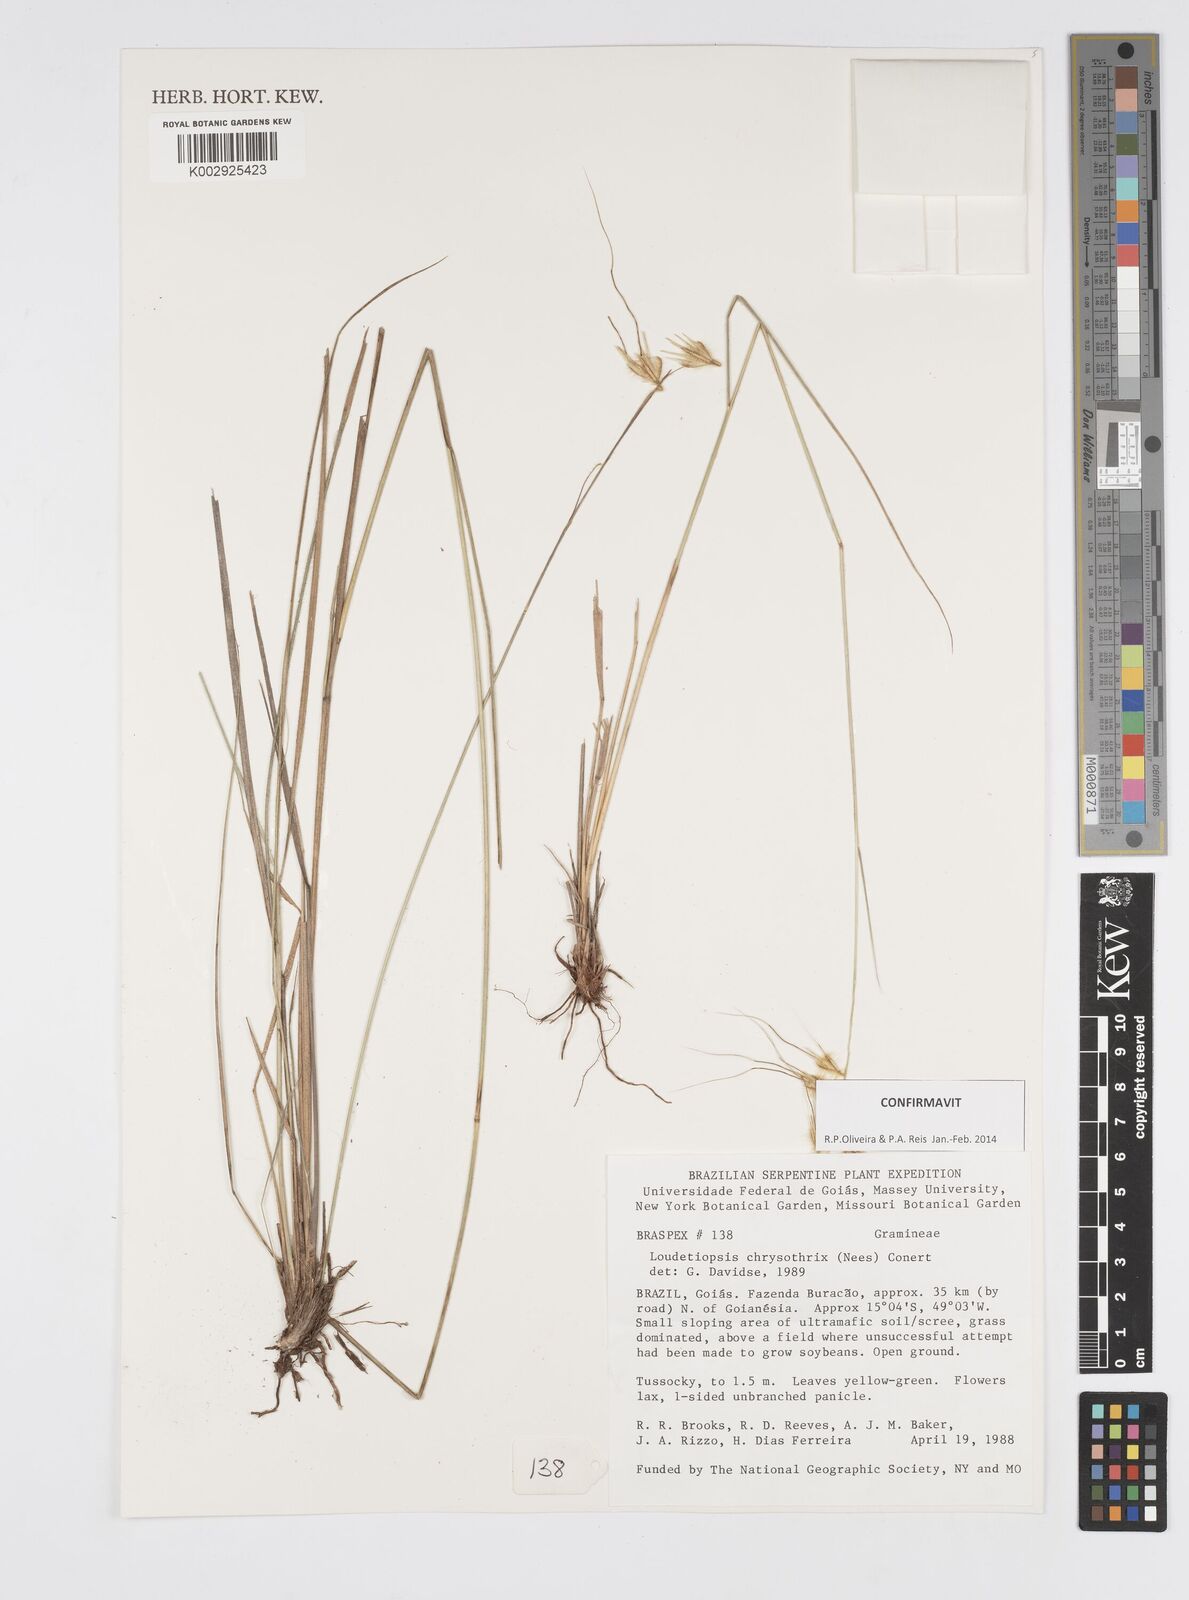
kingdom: Plantae
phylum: Tracheophyta
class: Liliopsida
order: Poales
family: Poaceae
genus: Loudetiopsis
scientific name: Loudetiopsis chrysothrix
